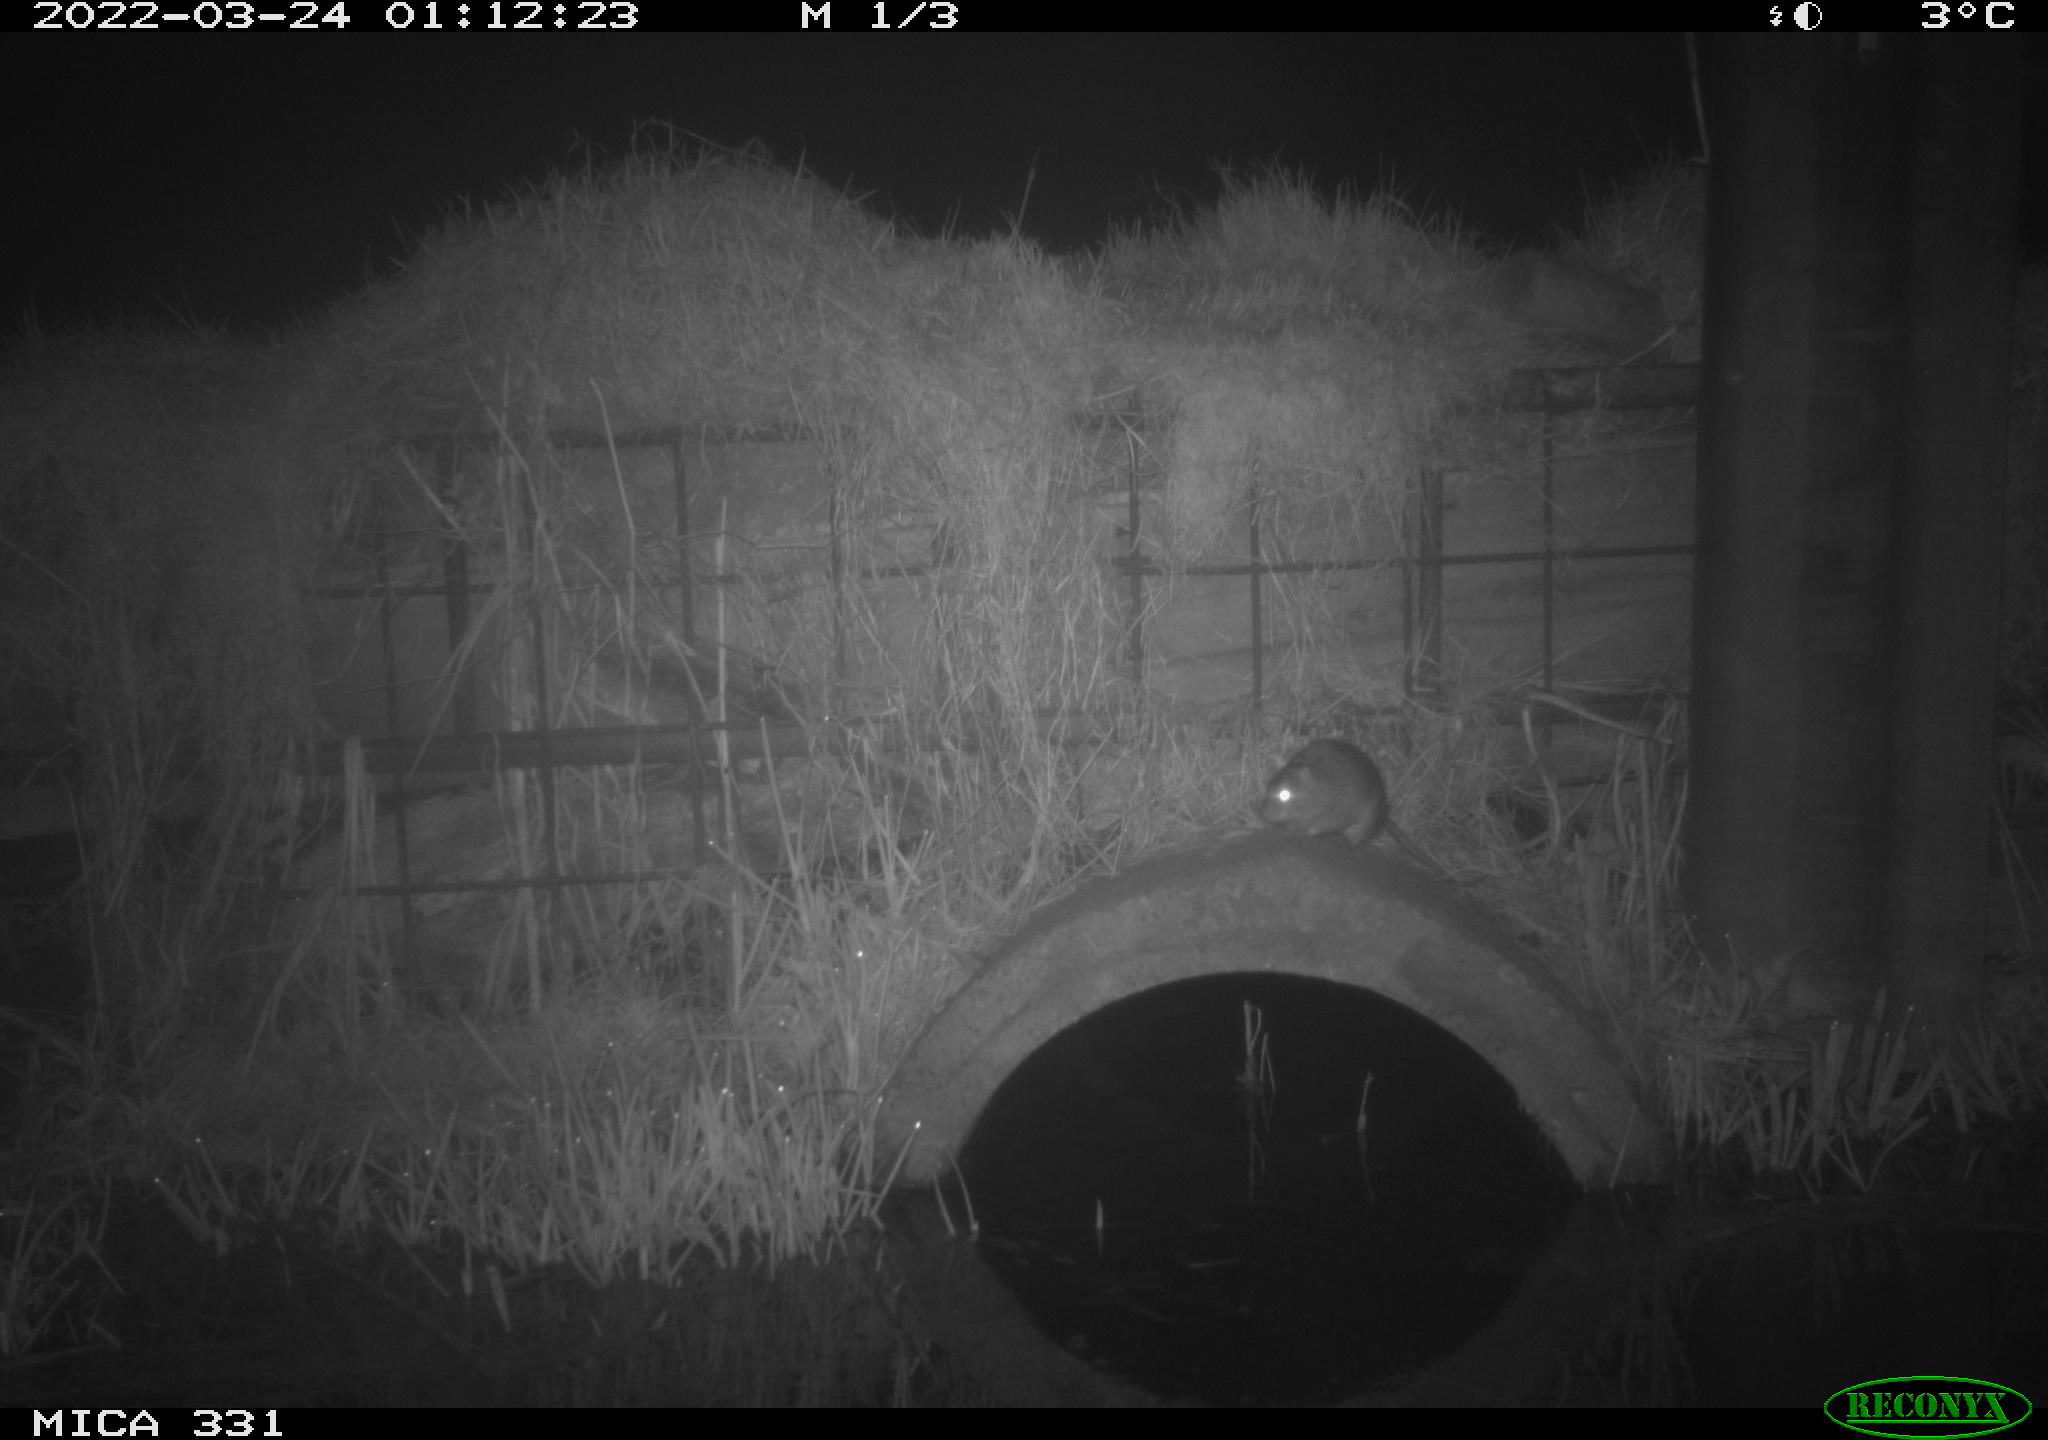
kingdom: Animalia
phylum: Chordata
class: Mammalia
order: Rodentia
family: Muridae
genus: Rattus
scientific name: Rattus norvegicus
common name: Brown rat
